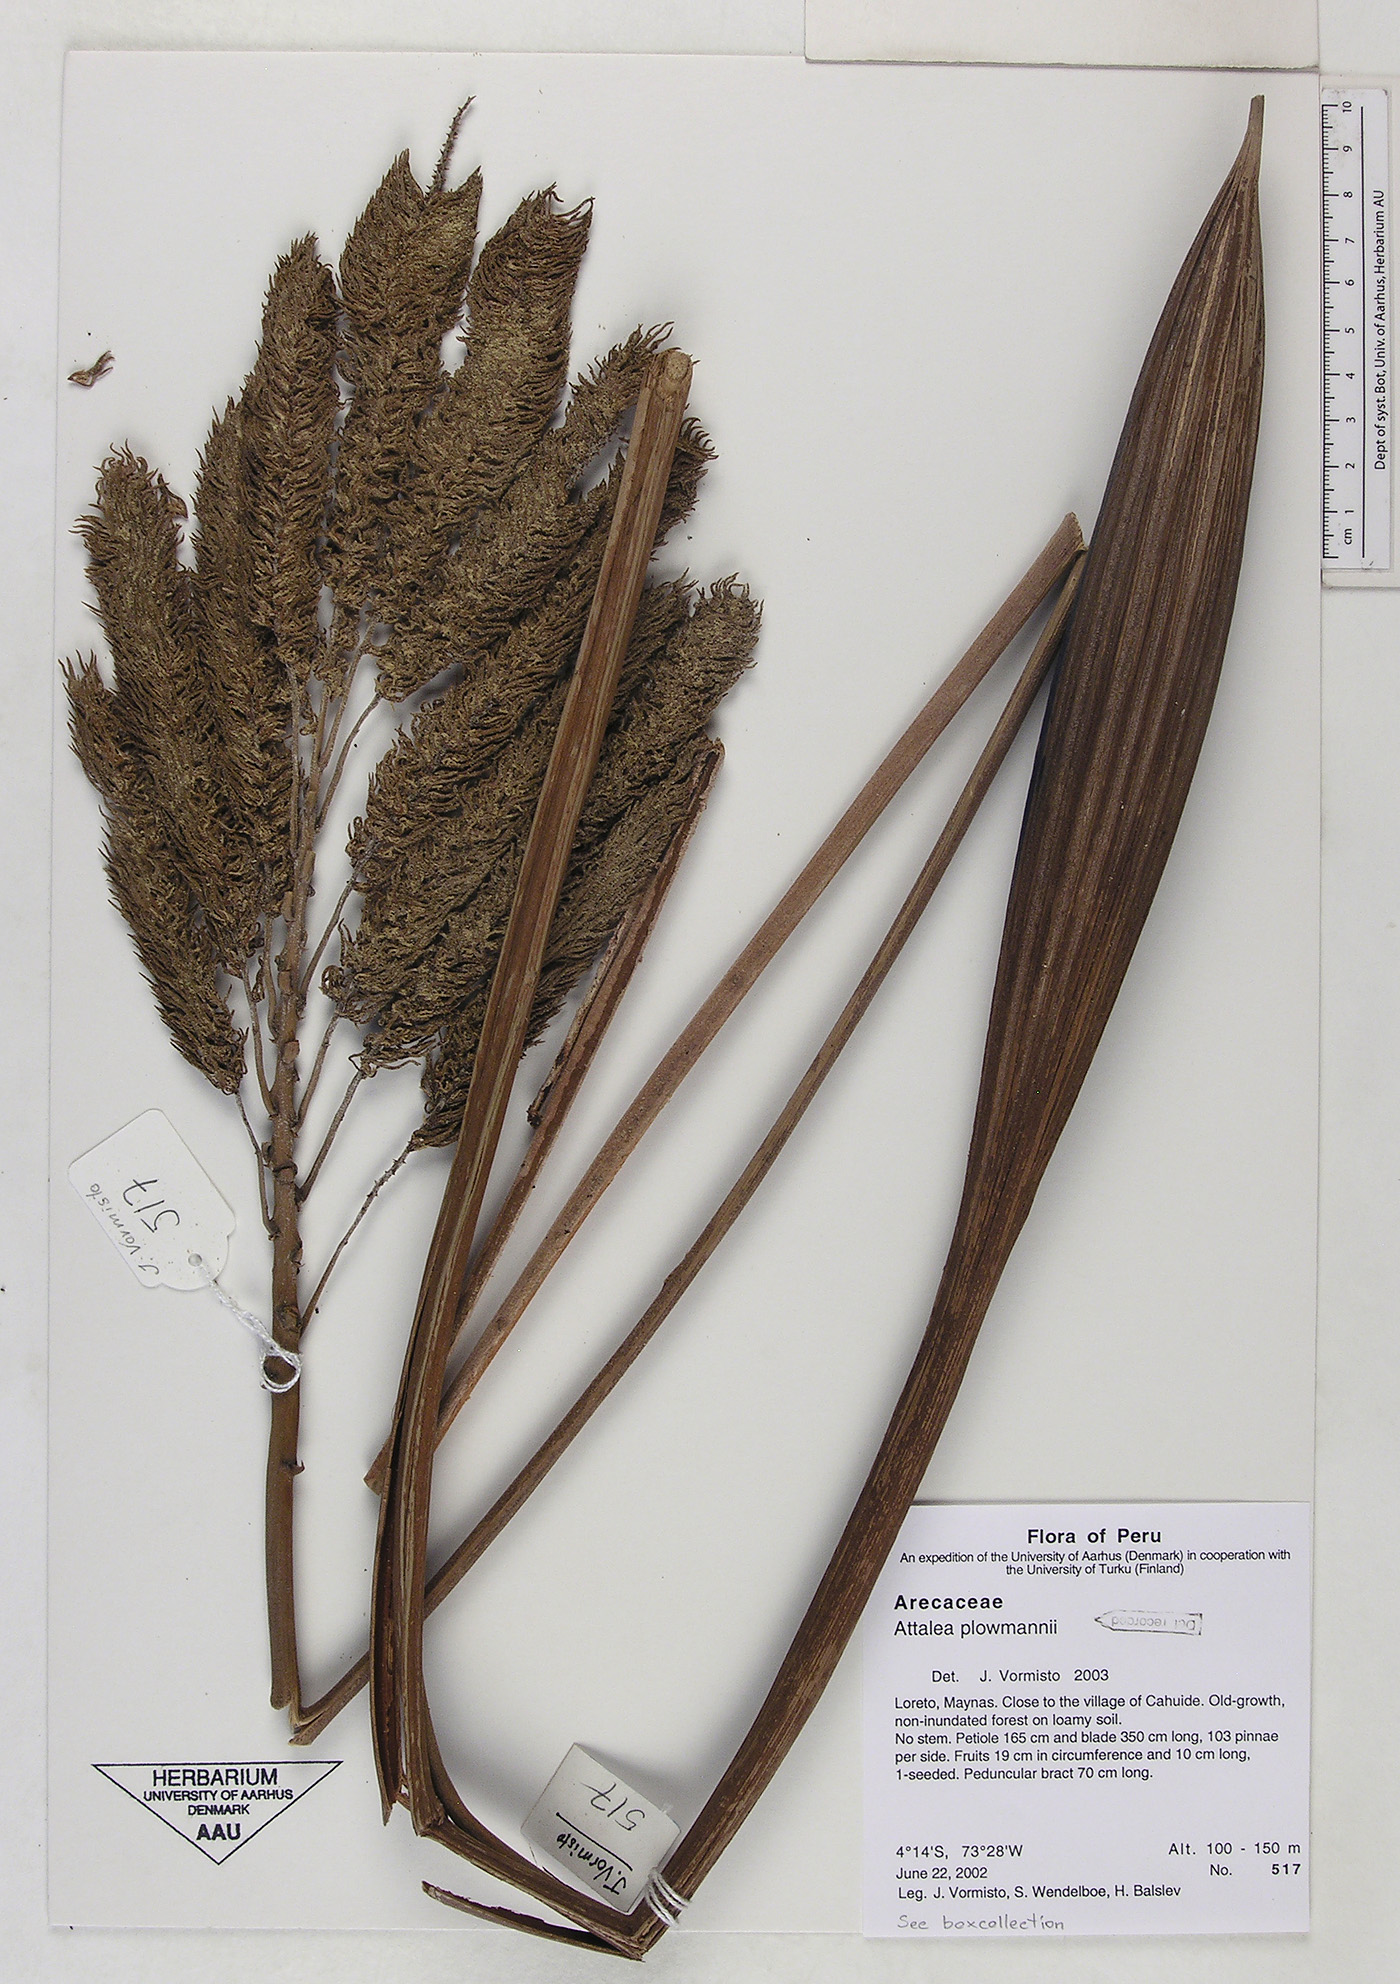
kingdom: Plantae
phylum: Tracheophyta
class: Liliopsida
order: Arecales
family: Arecaceae
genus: Attalea
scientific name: Attalea plowmanii
